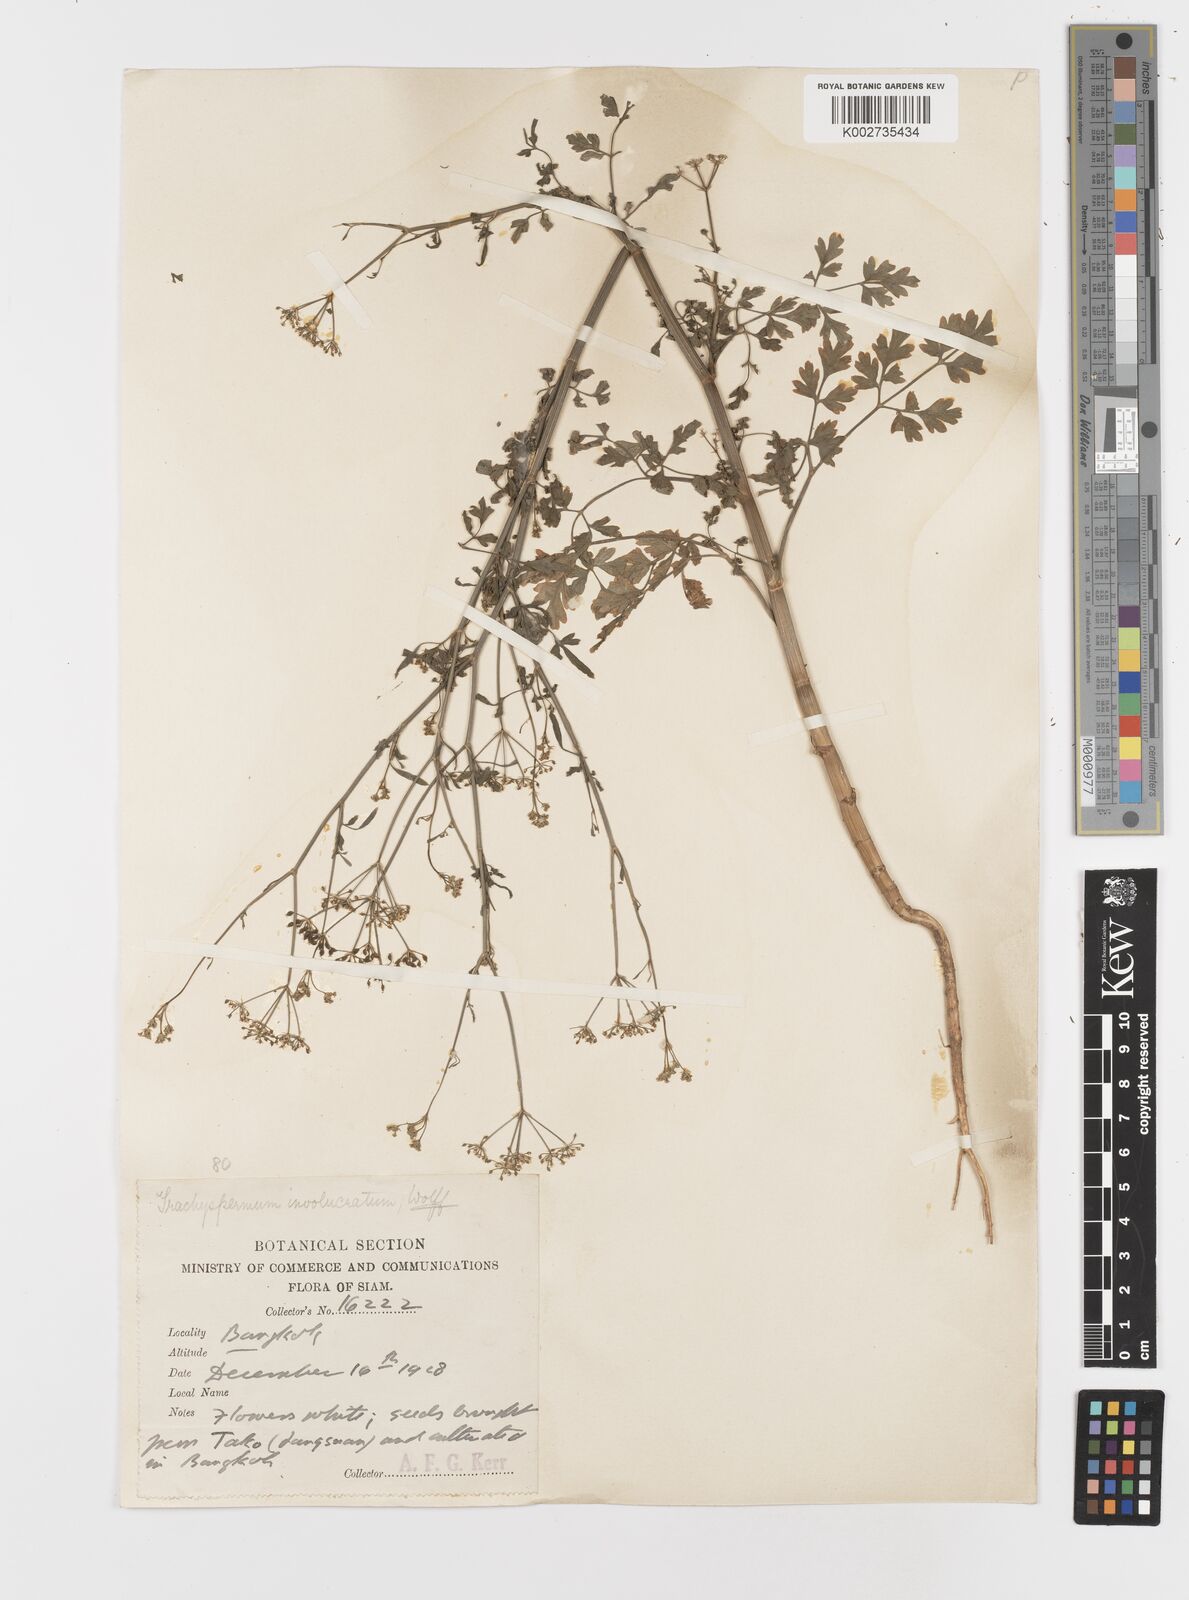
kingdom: Plantae
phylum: Tracheophyta
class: Magnoliopsida
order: Apiales
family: Apiaceae
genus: Psammogeton
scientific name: Psammogeton involucratum
